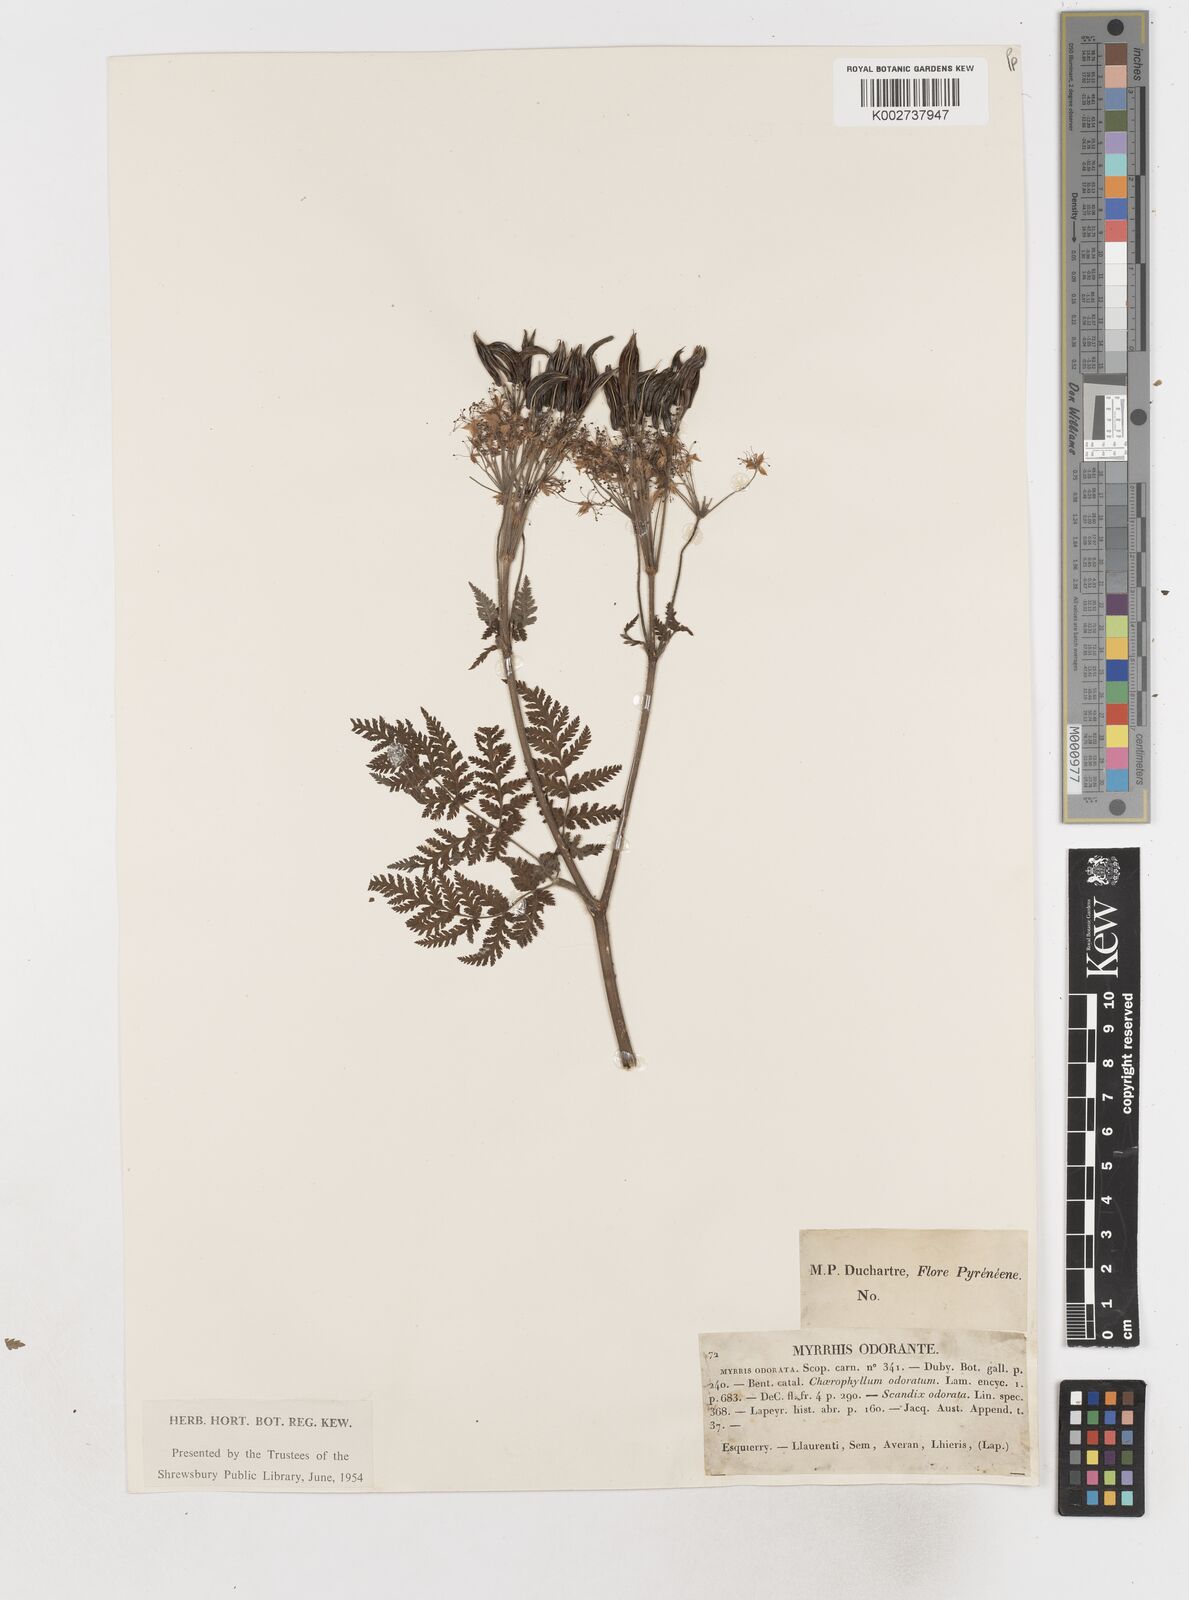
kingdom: Plantae
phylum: Tracheophyta
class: Magnoliopsida
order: Apiales
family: Apiaceae
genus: Myrrhis
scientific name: Myrrhis odorata
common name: Sweet cicely
